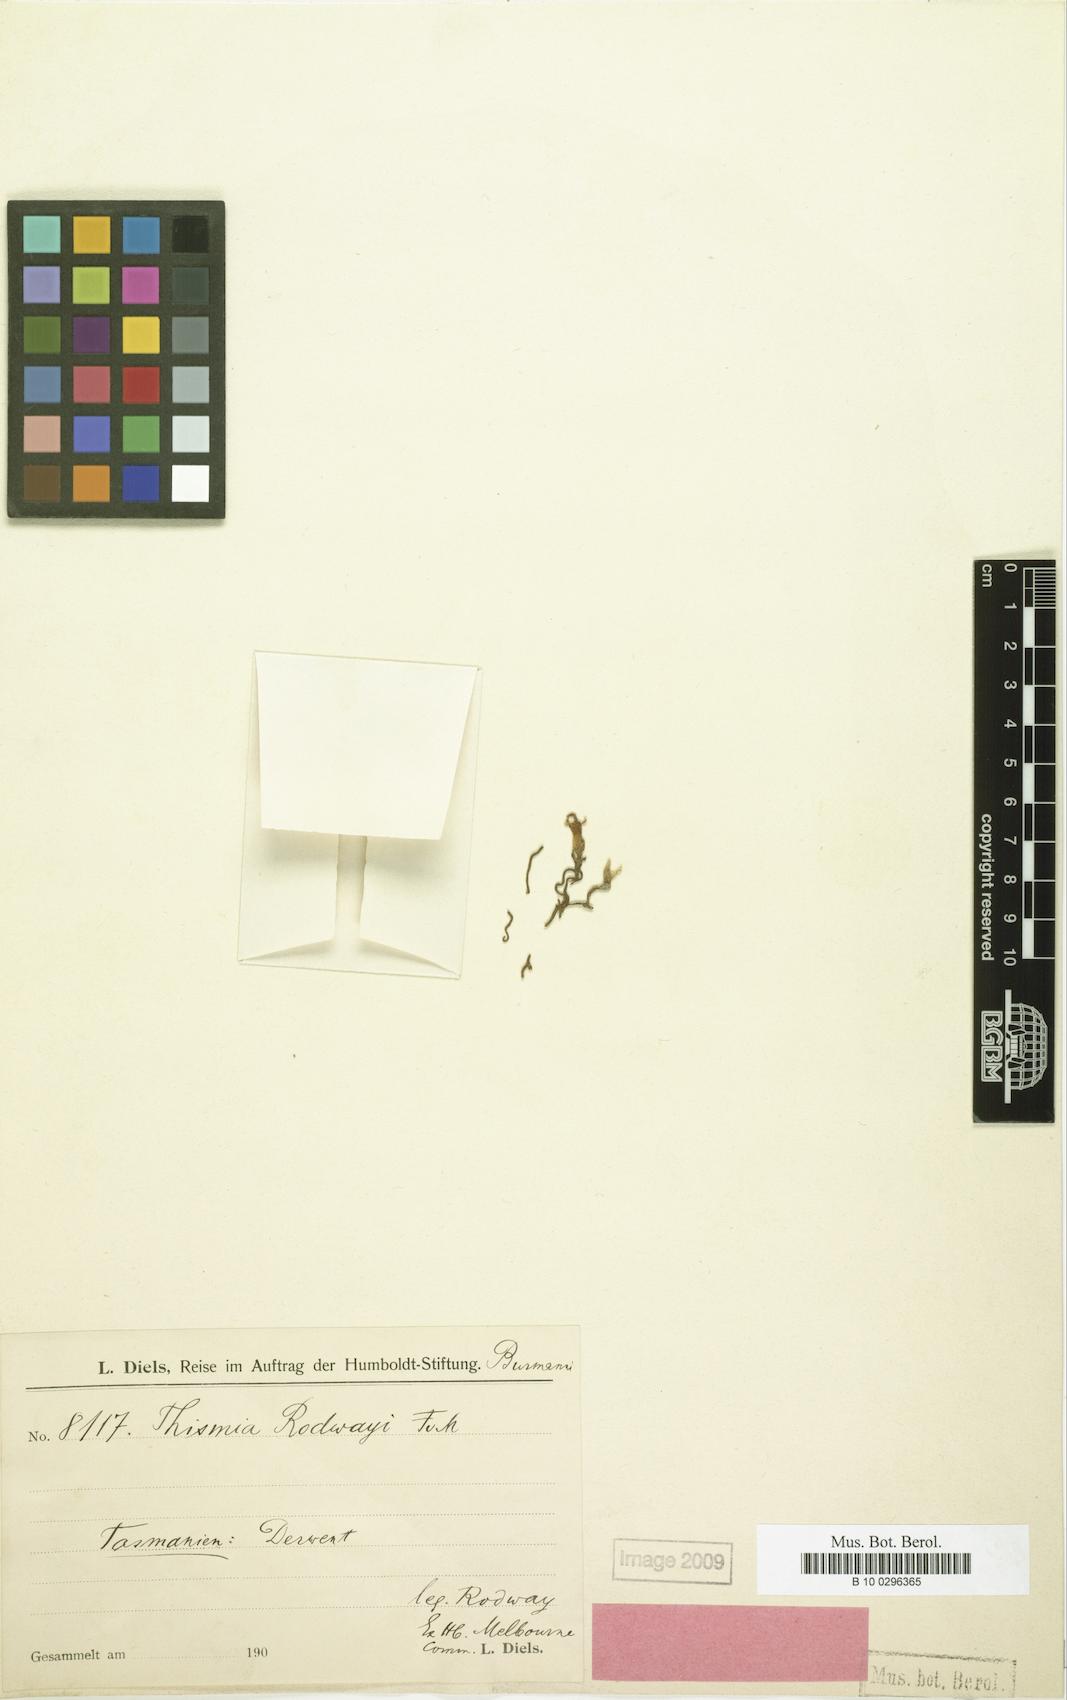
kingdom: Plantae
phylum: Tracheophyta
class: Liliopsida
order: Dioscoreales
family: Burmanniaceae
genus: Thismia
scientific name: Thismia rodwayi
